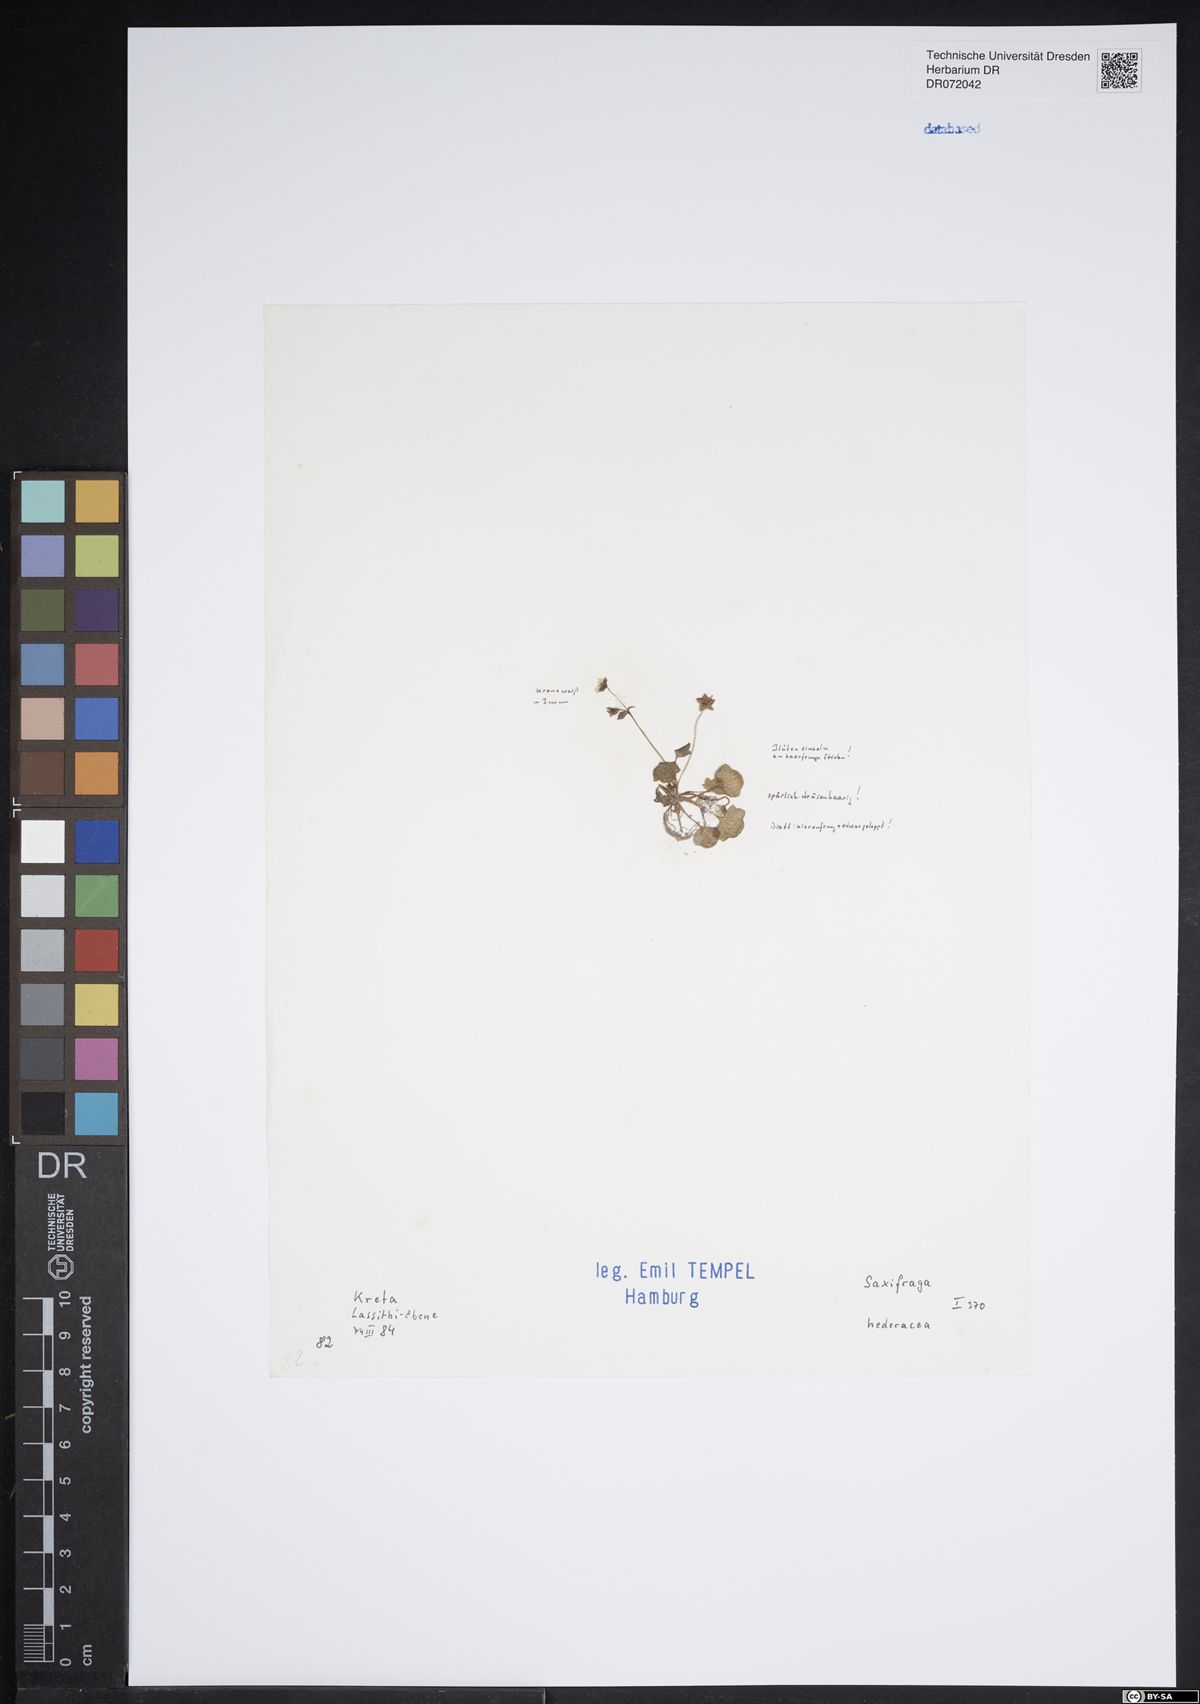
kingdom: Plantae
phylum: Tracheophyta
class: Magnoliopsida
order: Saxifragales
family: Saxifragaceae
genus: Saxifraga
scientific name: Saxifraga hederacea
